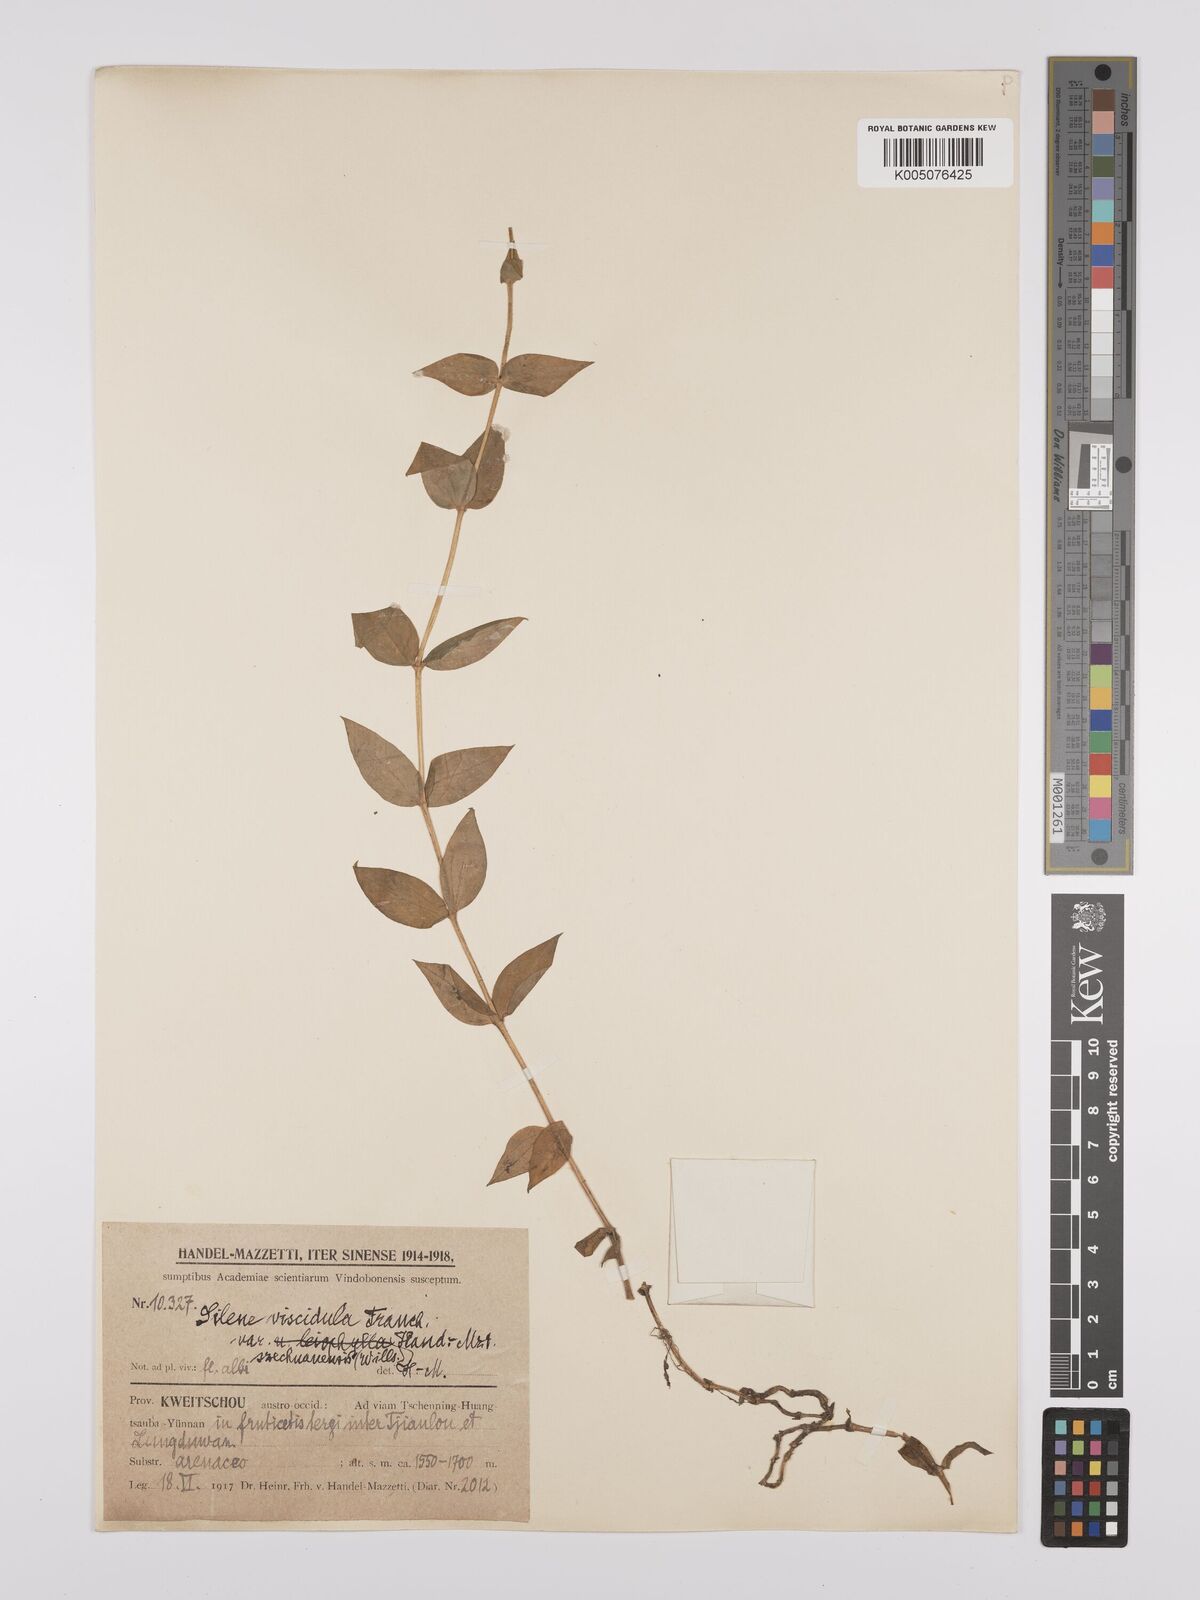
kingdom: Plantae
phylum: Tracheophyta
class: Magnoliopsida
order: Caryophyllales
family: Caryophyllaceae
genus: Silene
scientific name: Silene
